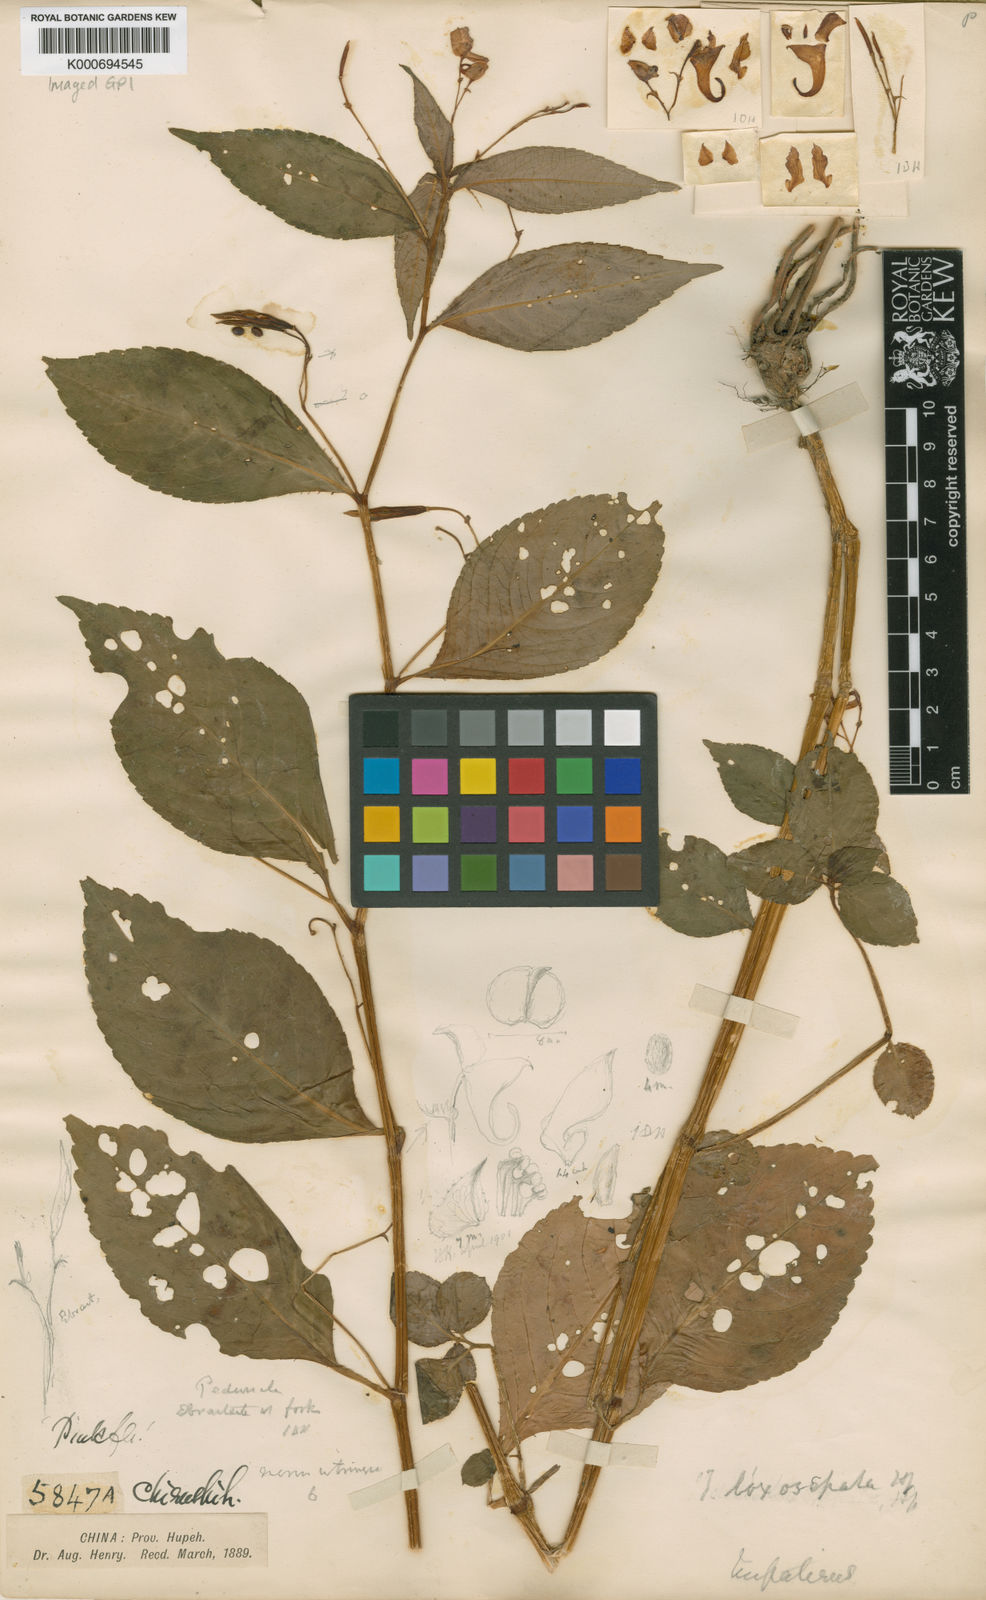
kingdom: Plantae
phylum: Tracheophyta
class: Magnoliopsida
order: Ericales
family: Balsaminaceae
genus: Impatiens
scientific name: Impatiens
